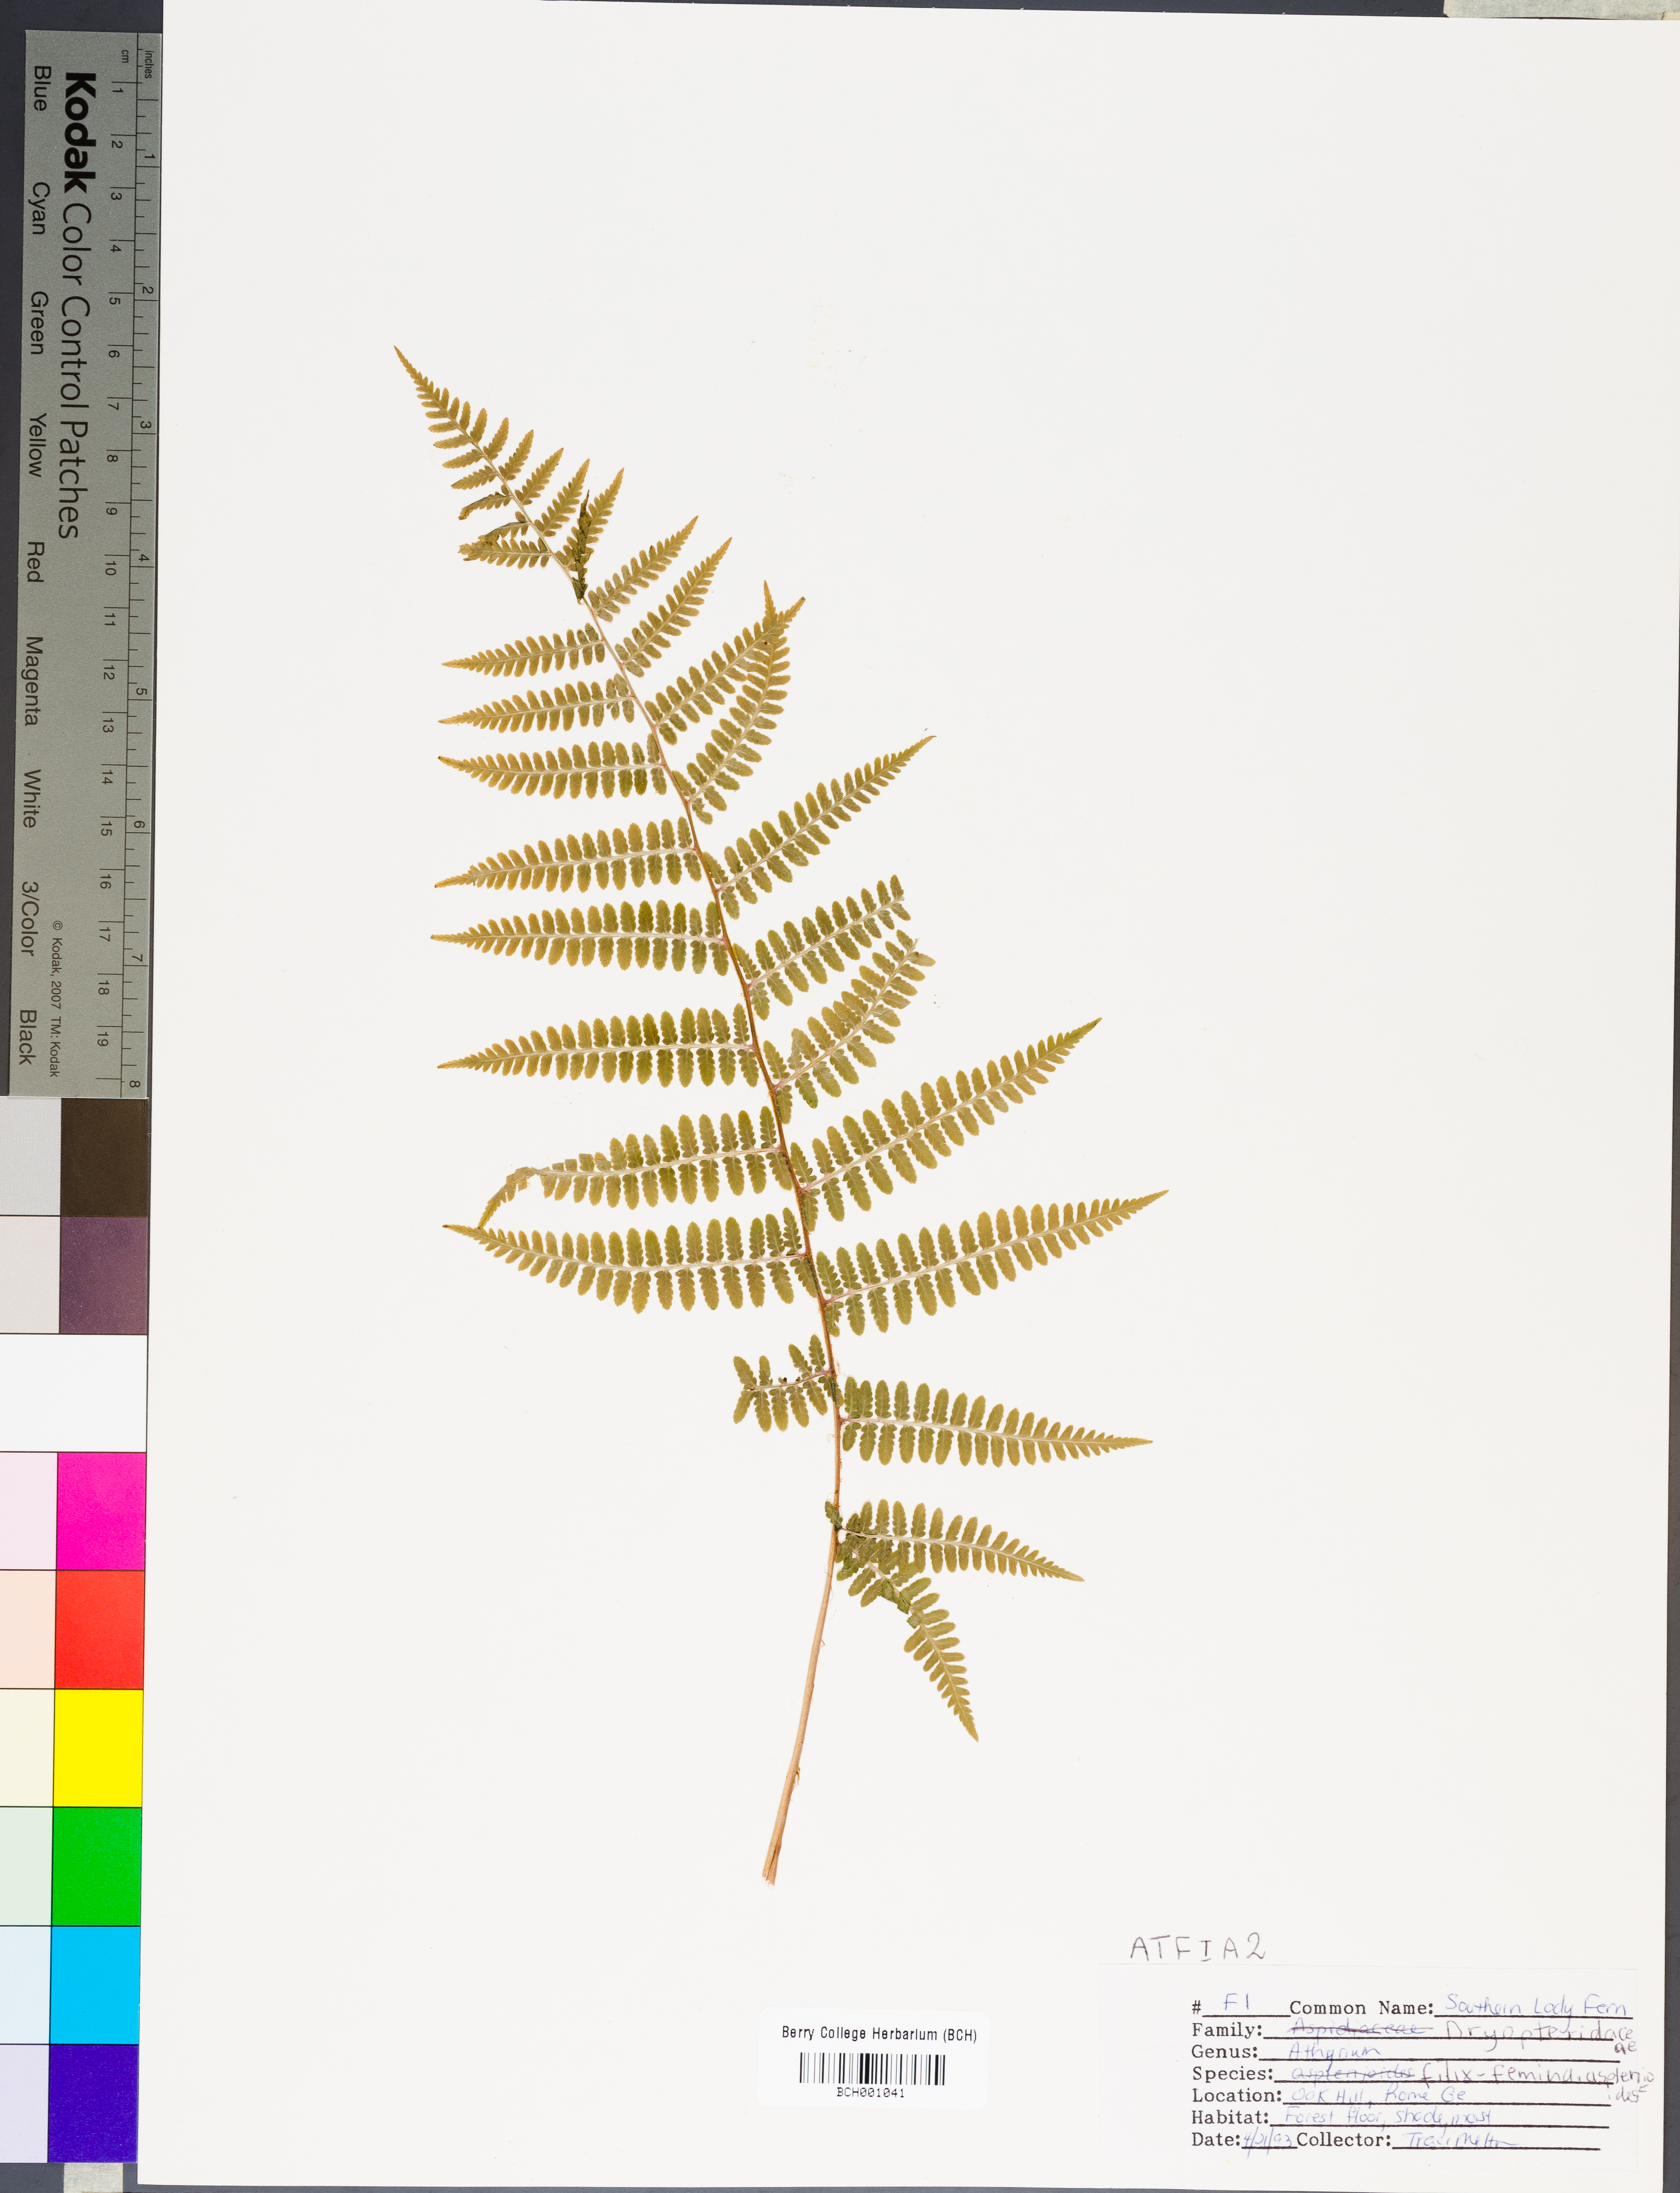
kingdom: Plantae
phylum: Tracheophyta
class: Polypodiopsida
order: Polypodiales
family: Athyriaceae
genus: Athyrium
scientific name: Athyrium asplenioides
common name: Southern lady fern
